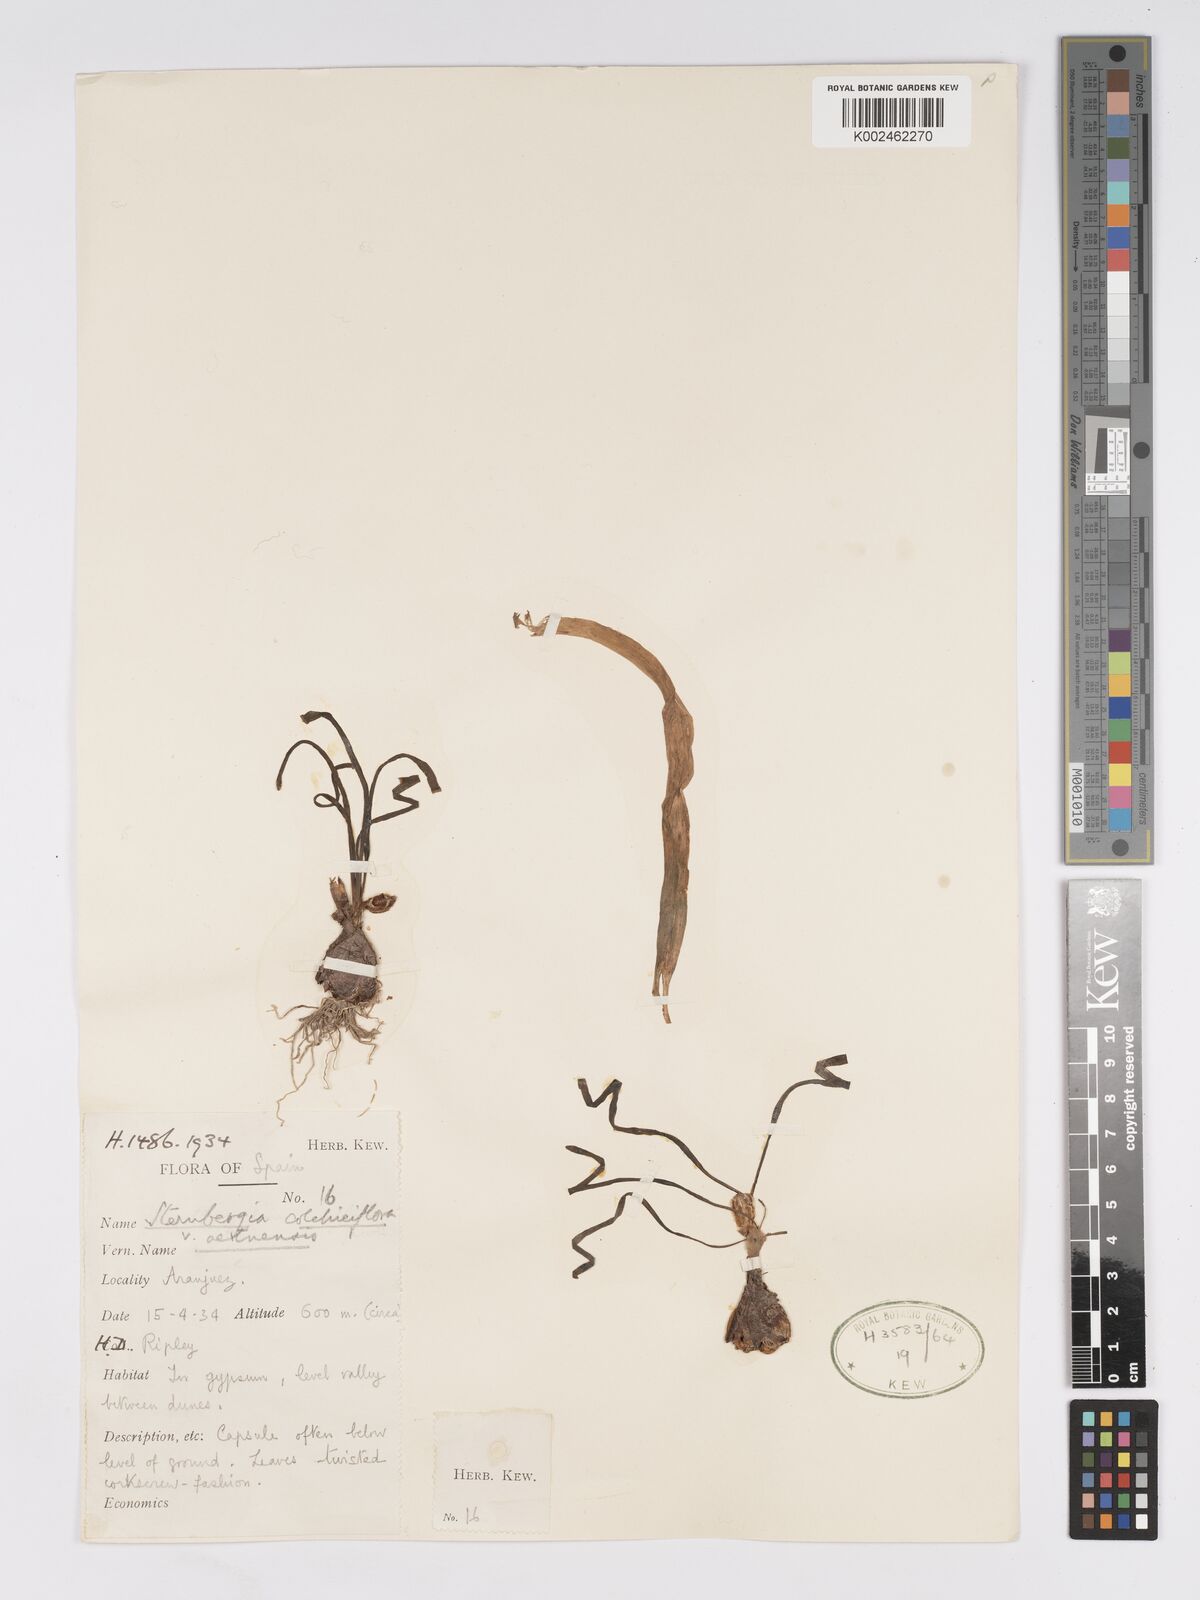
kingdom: Plantae
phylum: Tracheophyta
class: Liliopsida
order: Asparagales
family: Amaryllidaceae
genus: Sternbergia
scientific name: Sternbergia colchiciflora
